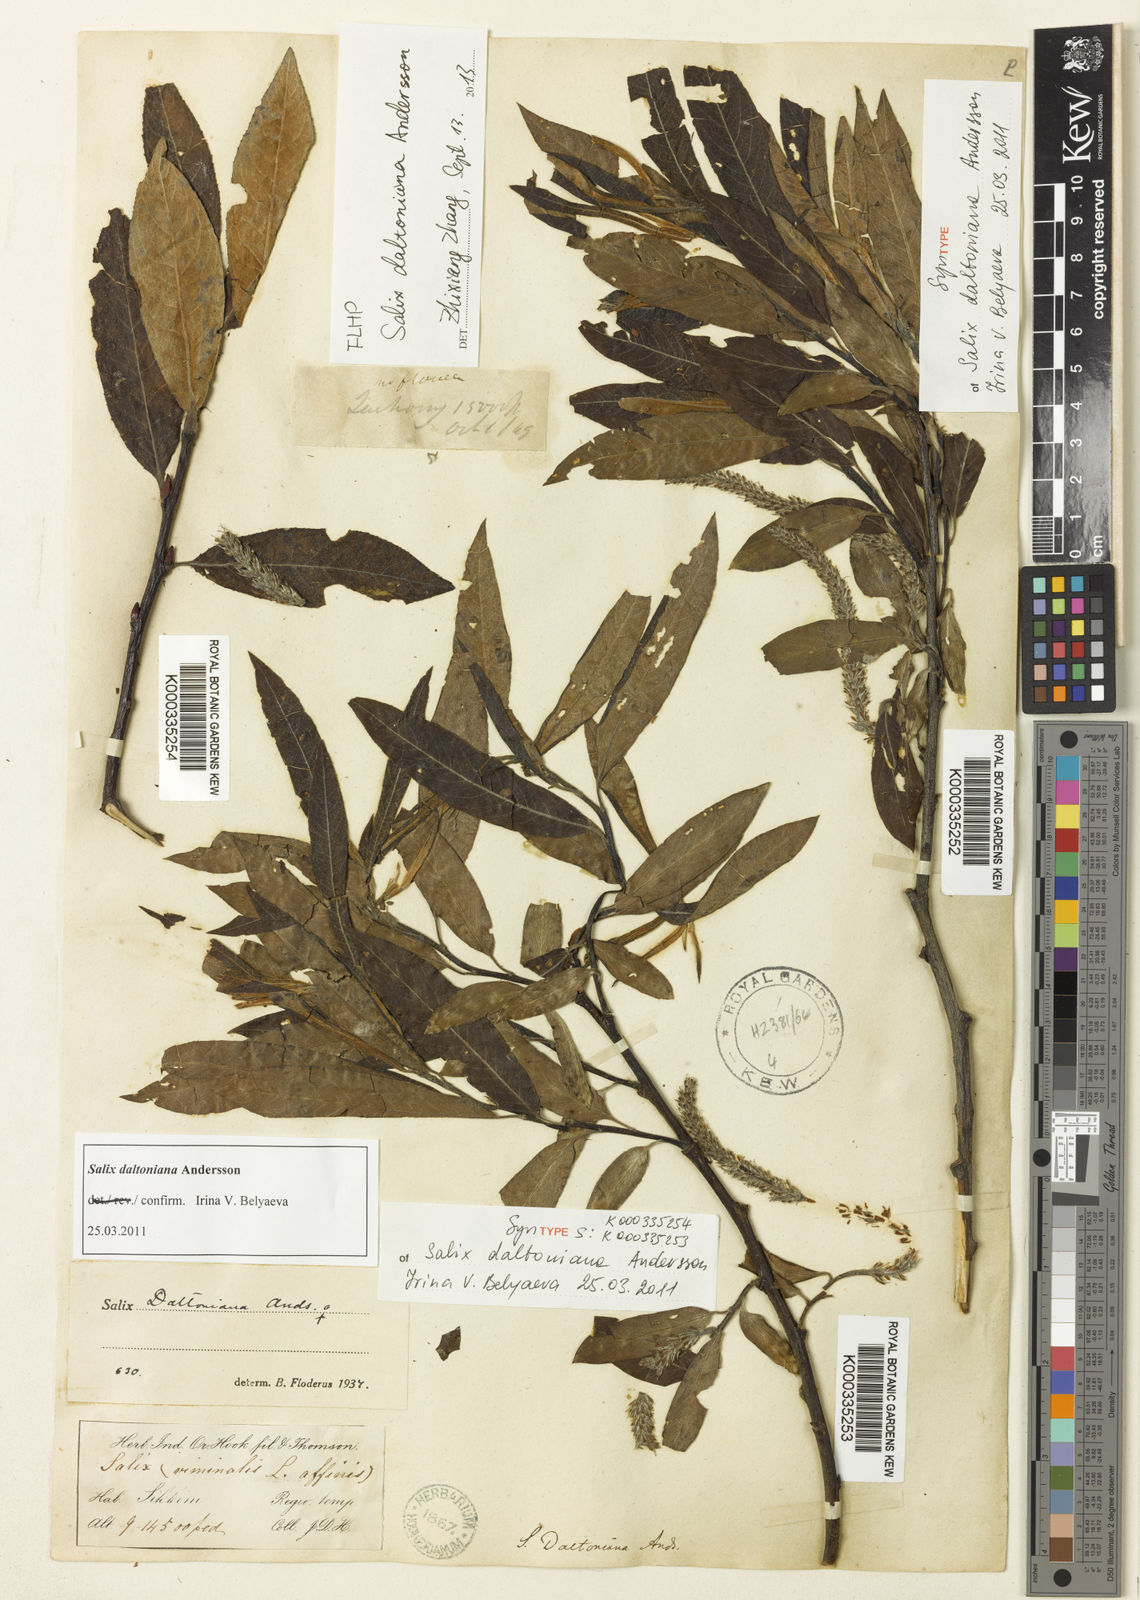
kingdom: Plantae
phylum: Tracheophyta
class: Magnoliopsida
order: Malpighiales
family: Salicaceae
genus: Salix
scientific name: Salix daltoniana
